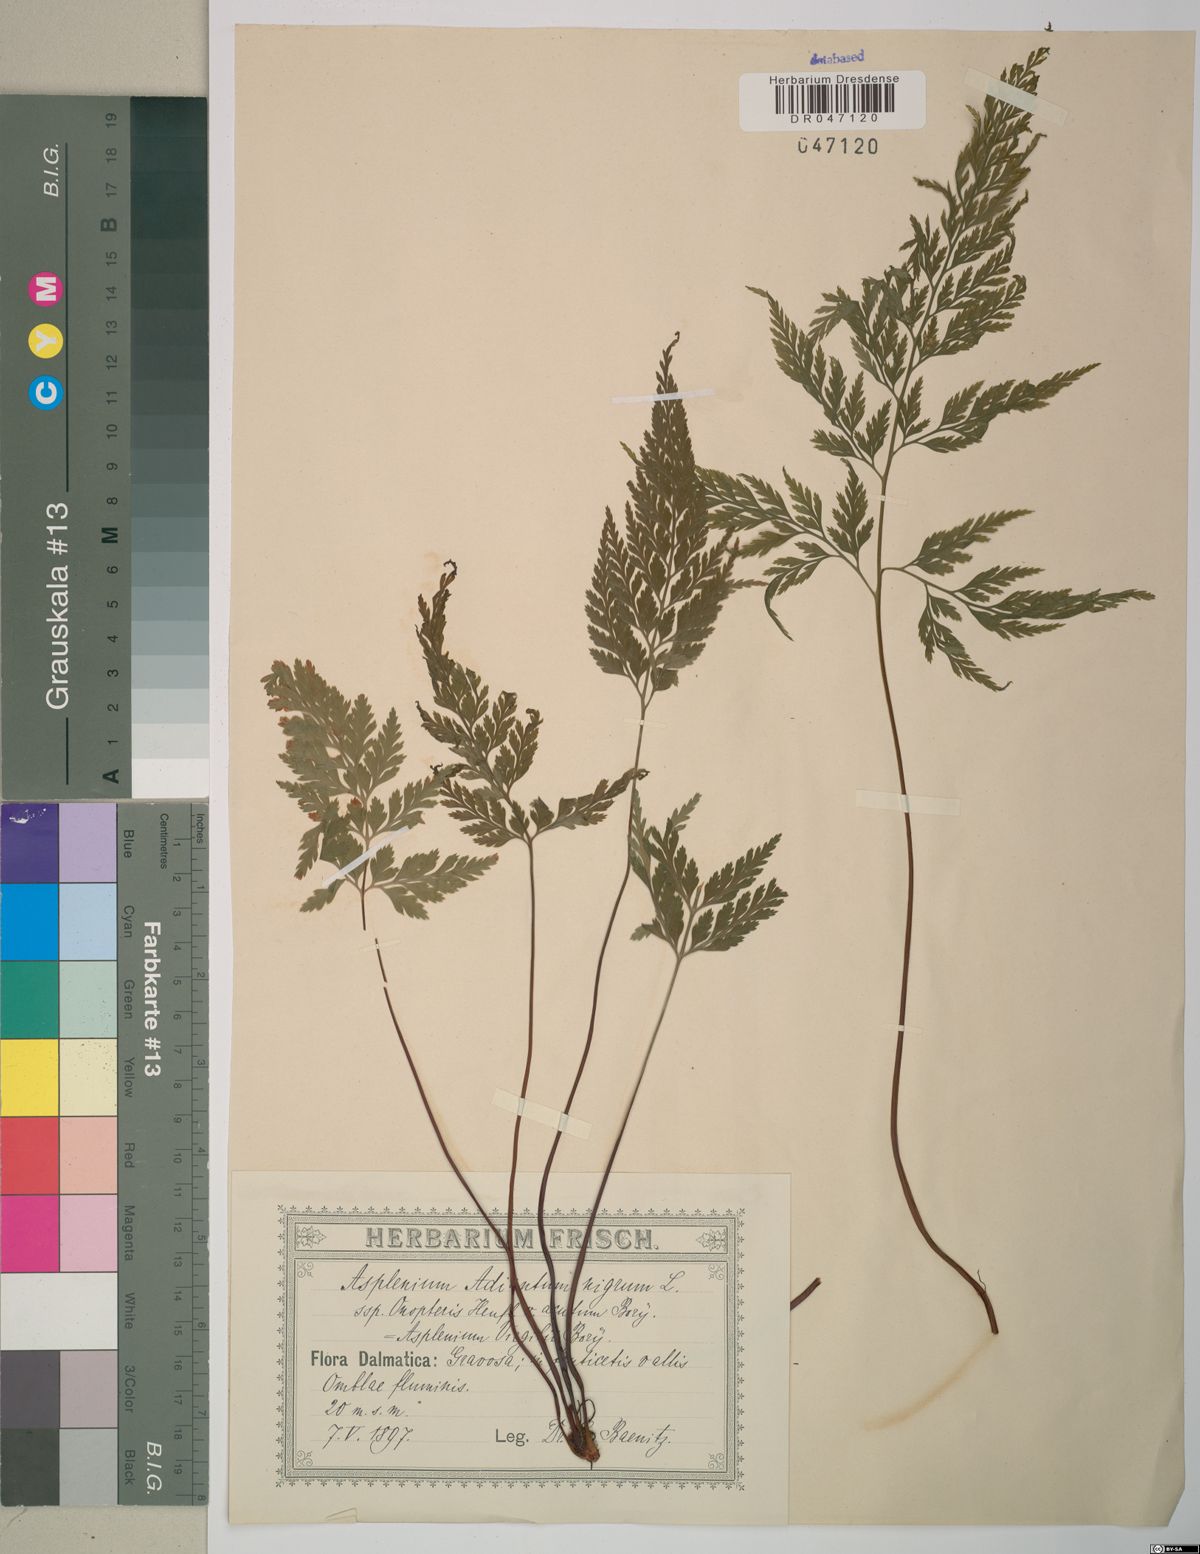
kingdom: Plantae
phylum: Tracheophyta
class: Polypodiopsida
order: Polypodiales
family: Aspleniaceae
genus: Asplenium
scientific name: Asplenium onopteris
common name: Irish spleenwort
